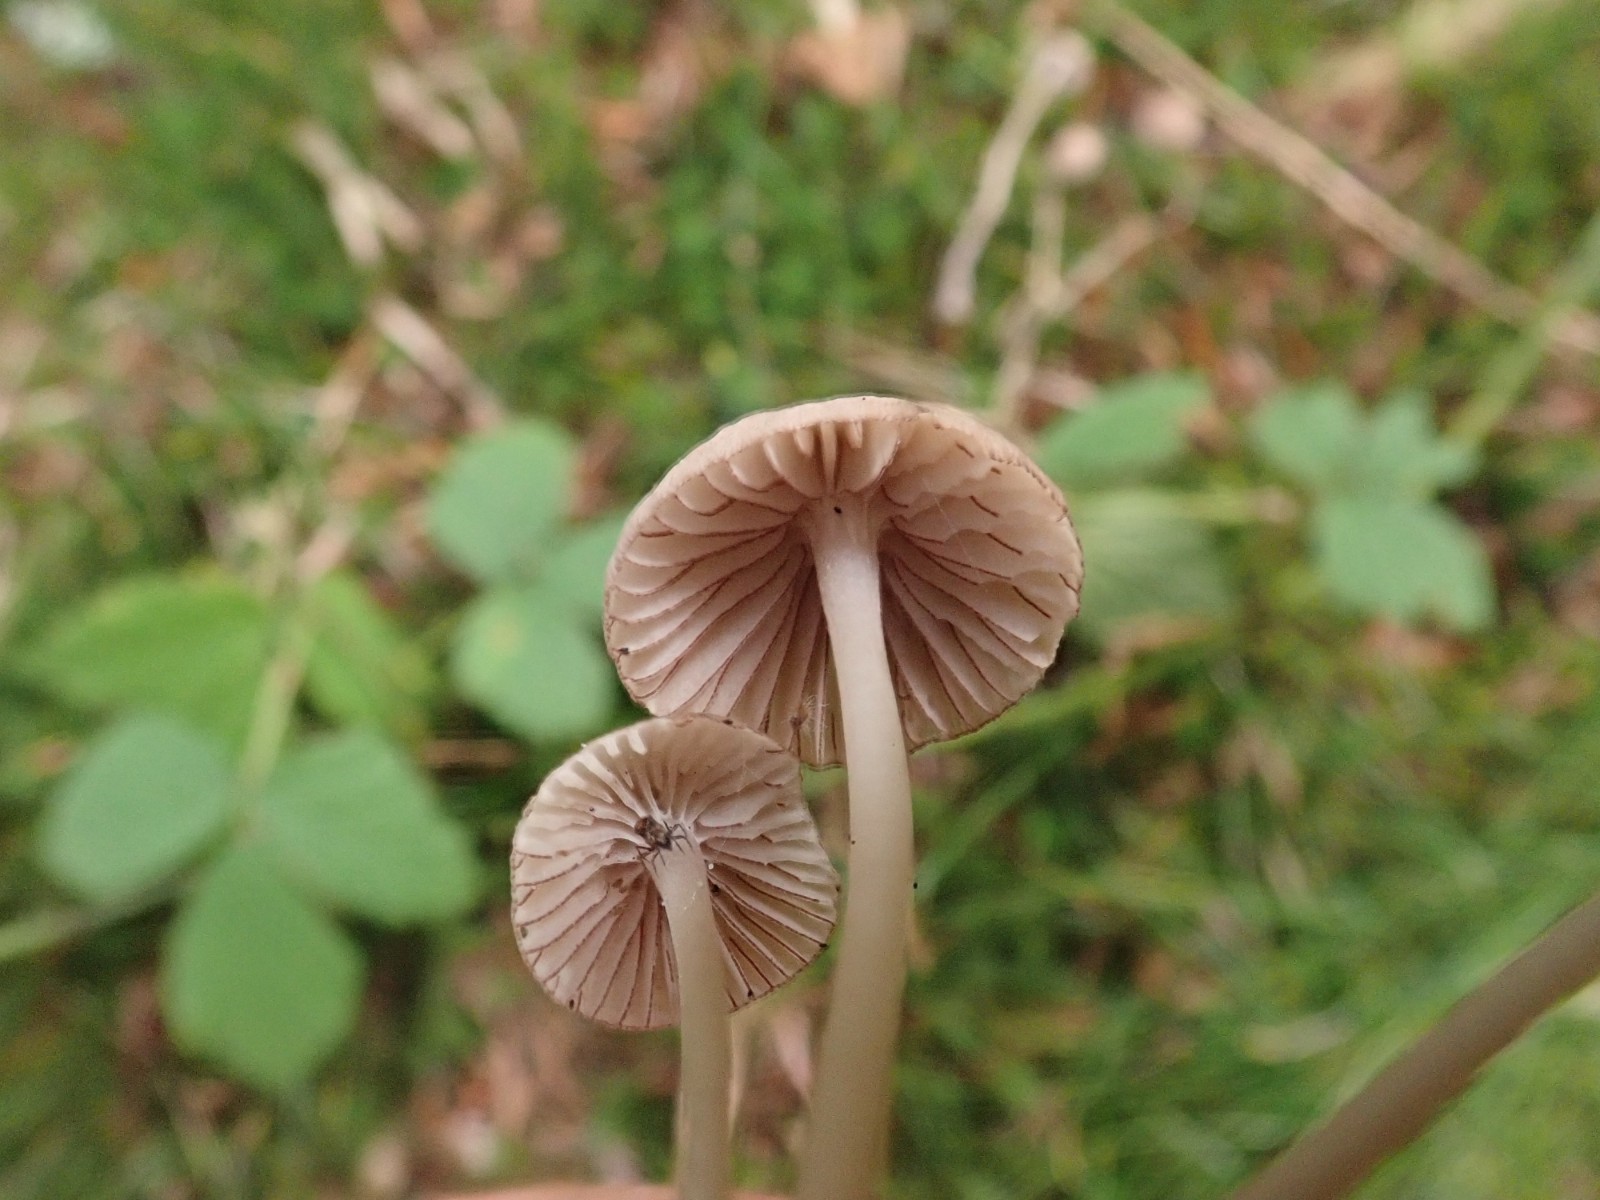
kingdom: Fungi
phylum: Basidiomycota
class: Agaricomycetes
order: Agaricales
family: Mycenaceae
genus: Mycena
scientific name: Mycena rubromarginata
